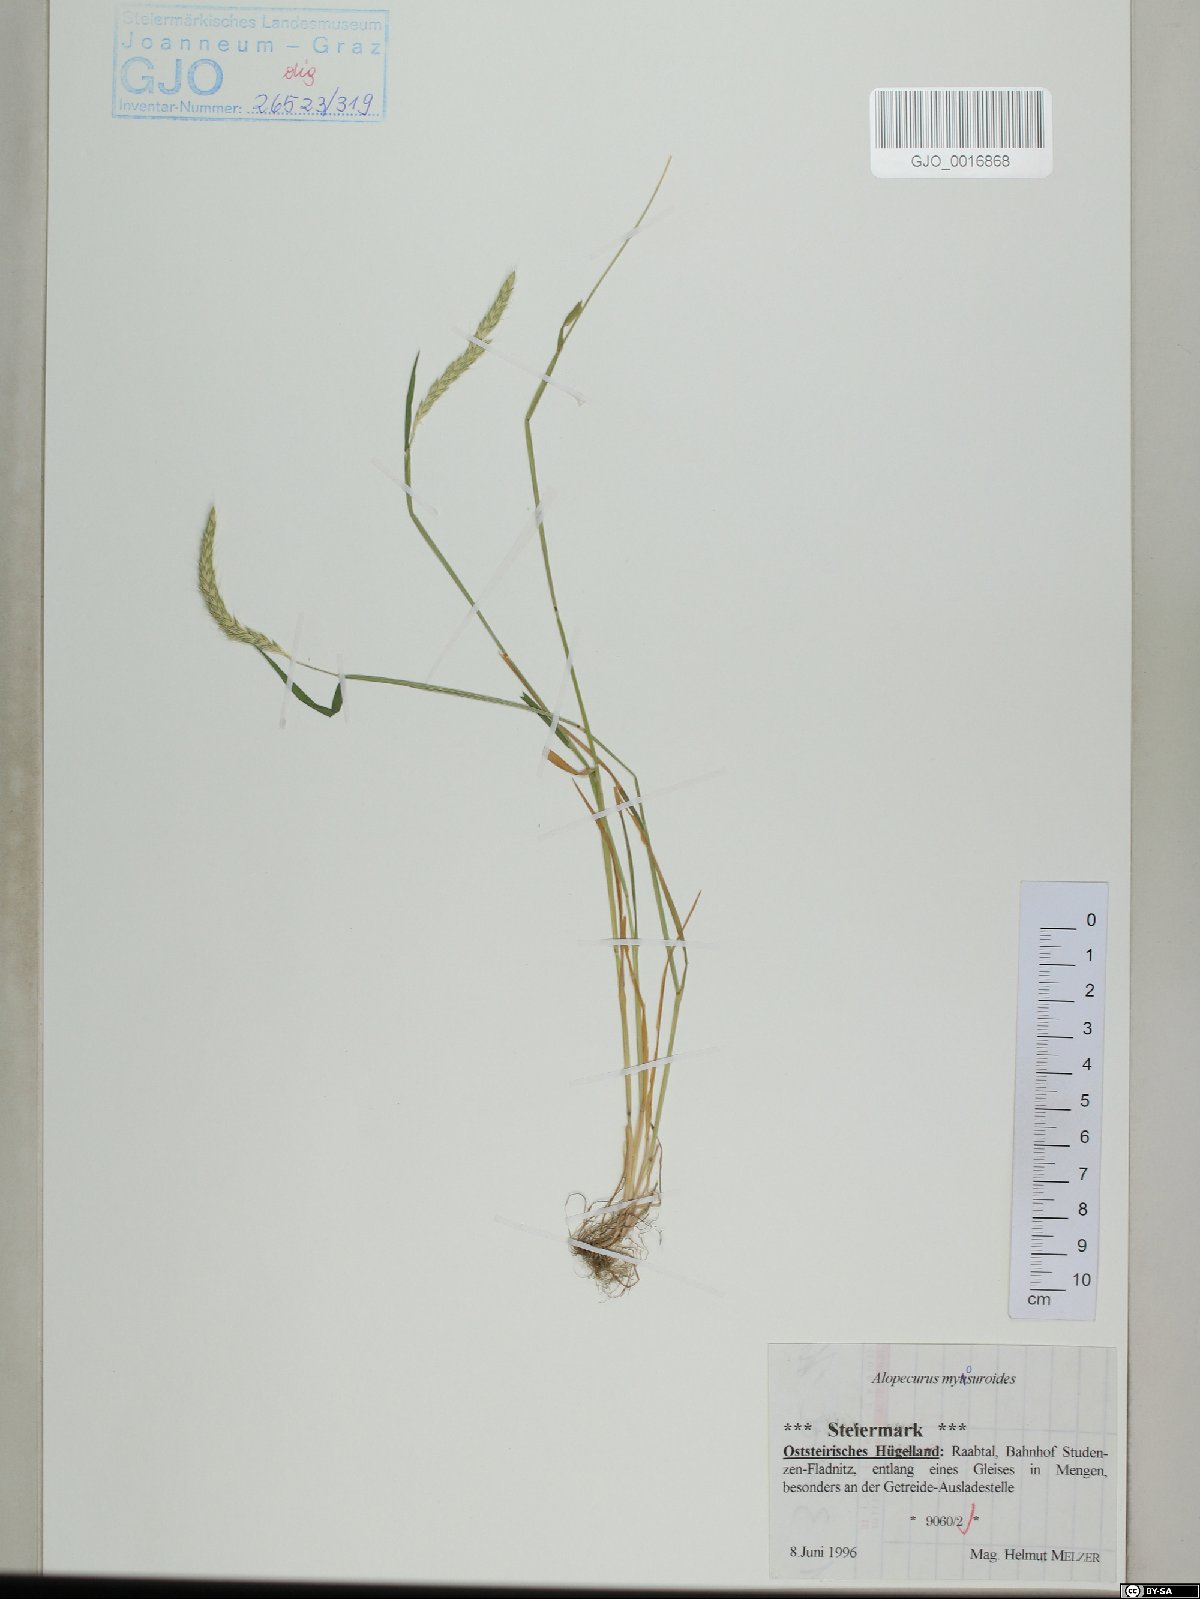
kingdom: Plantae
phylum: Tracheophyta
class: Liliopsida
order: Poales
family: Poaceae
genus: Alopecurus
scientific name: Alopecurus myosuroides
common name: Black-grass
